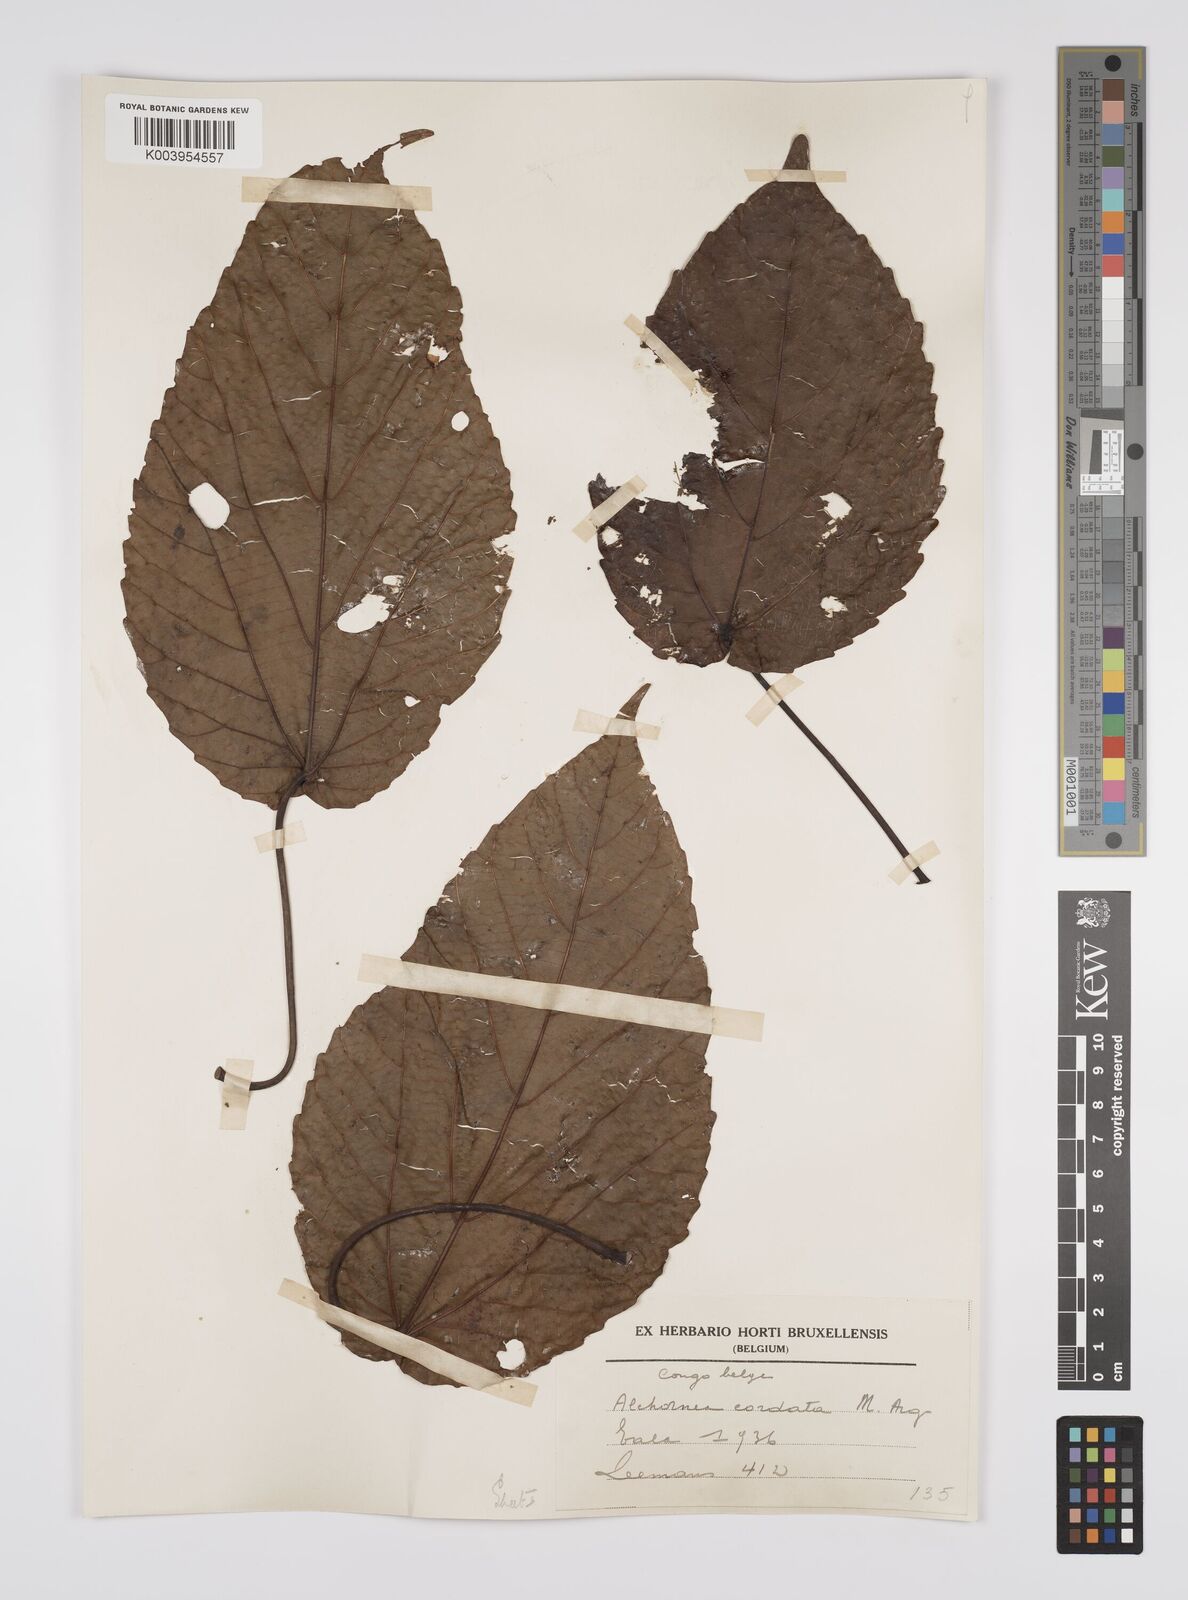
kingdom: Plantae
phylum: Tracheophyta
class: Magnoliopsida
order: Malpighiales
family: Euphorbiaceae
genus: Alchornea
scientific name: Alchornea cordifolia
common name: Christmasbush
